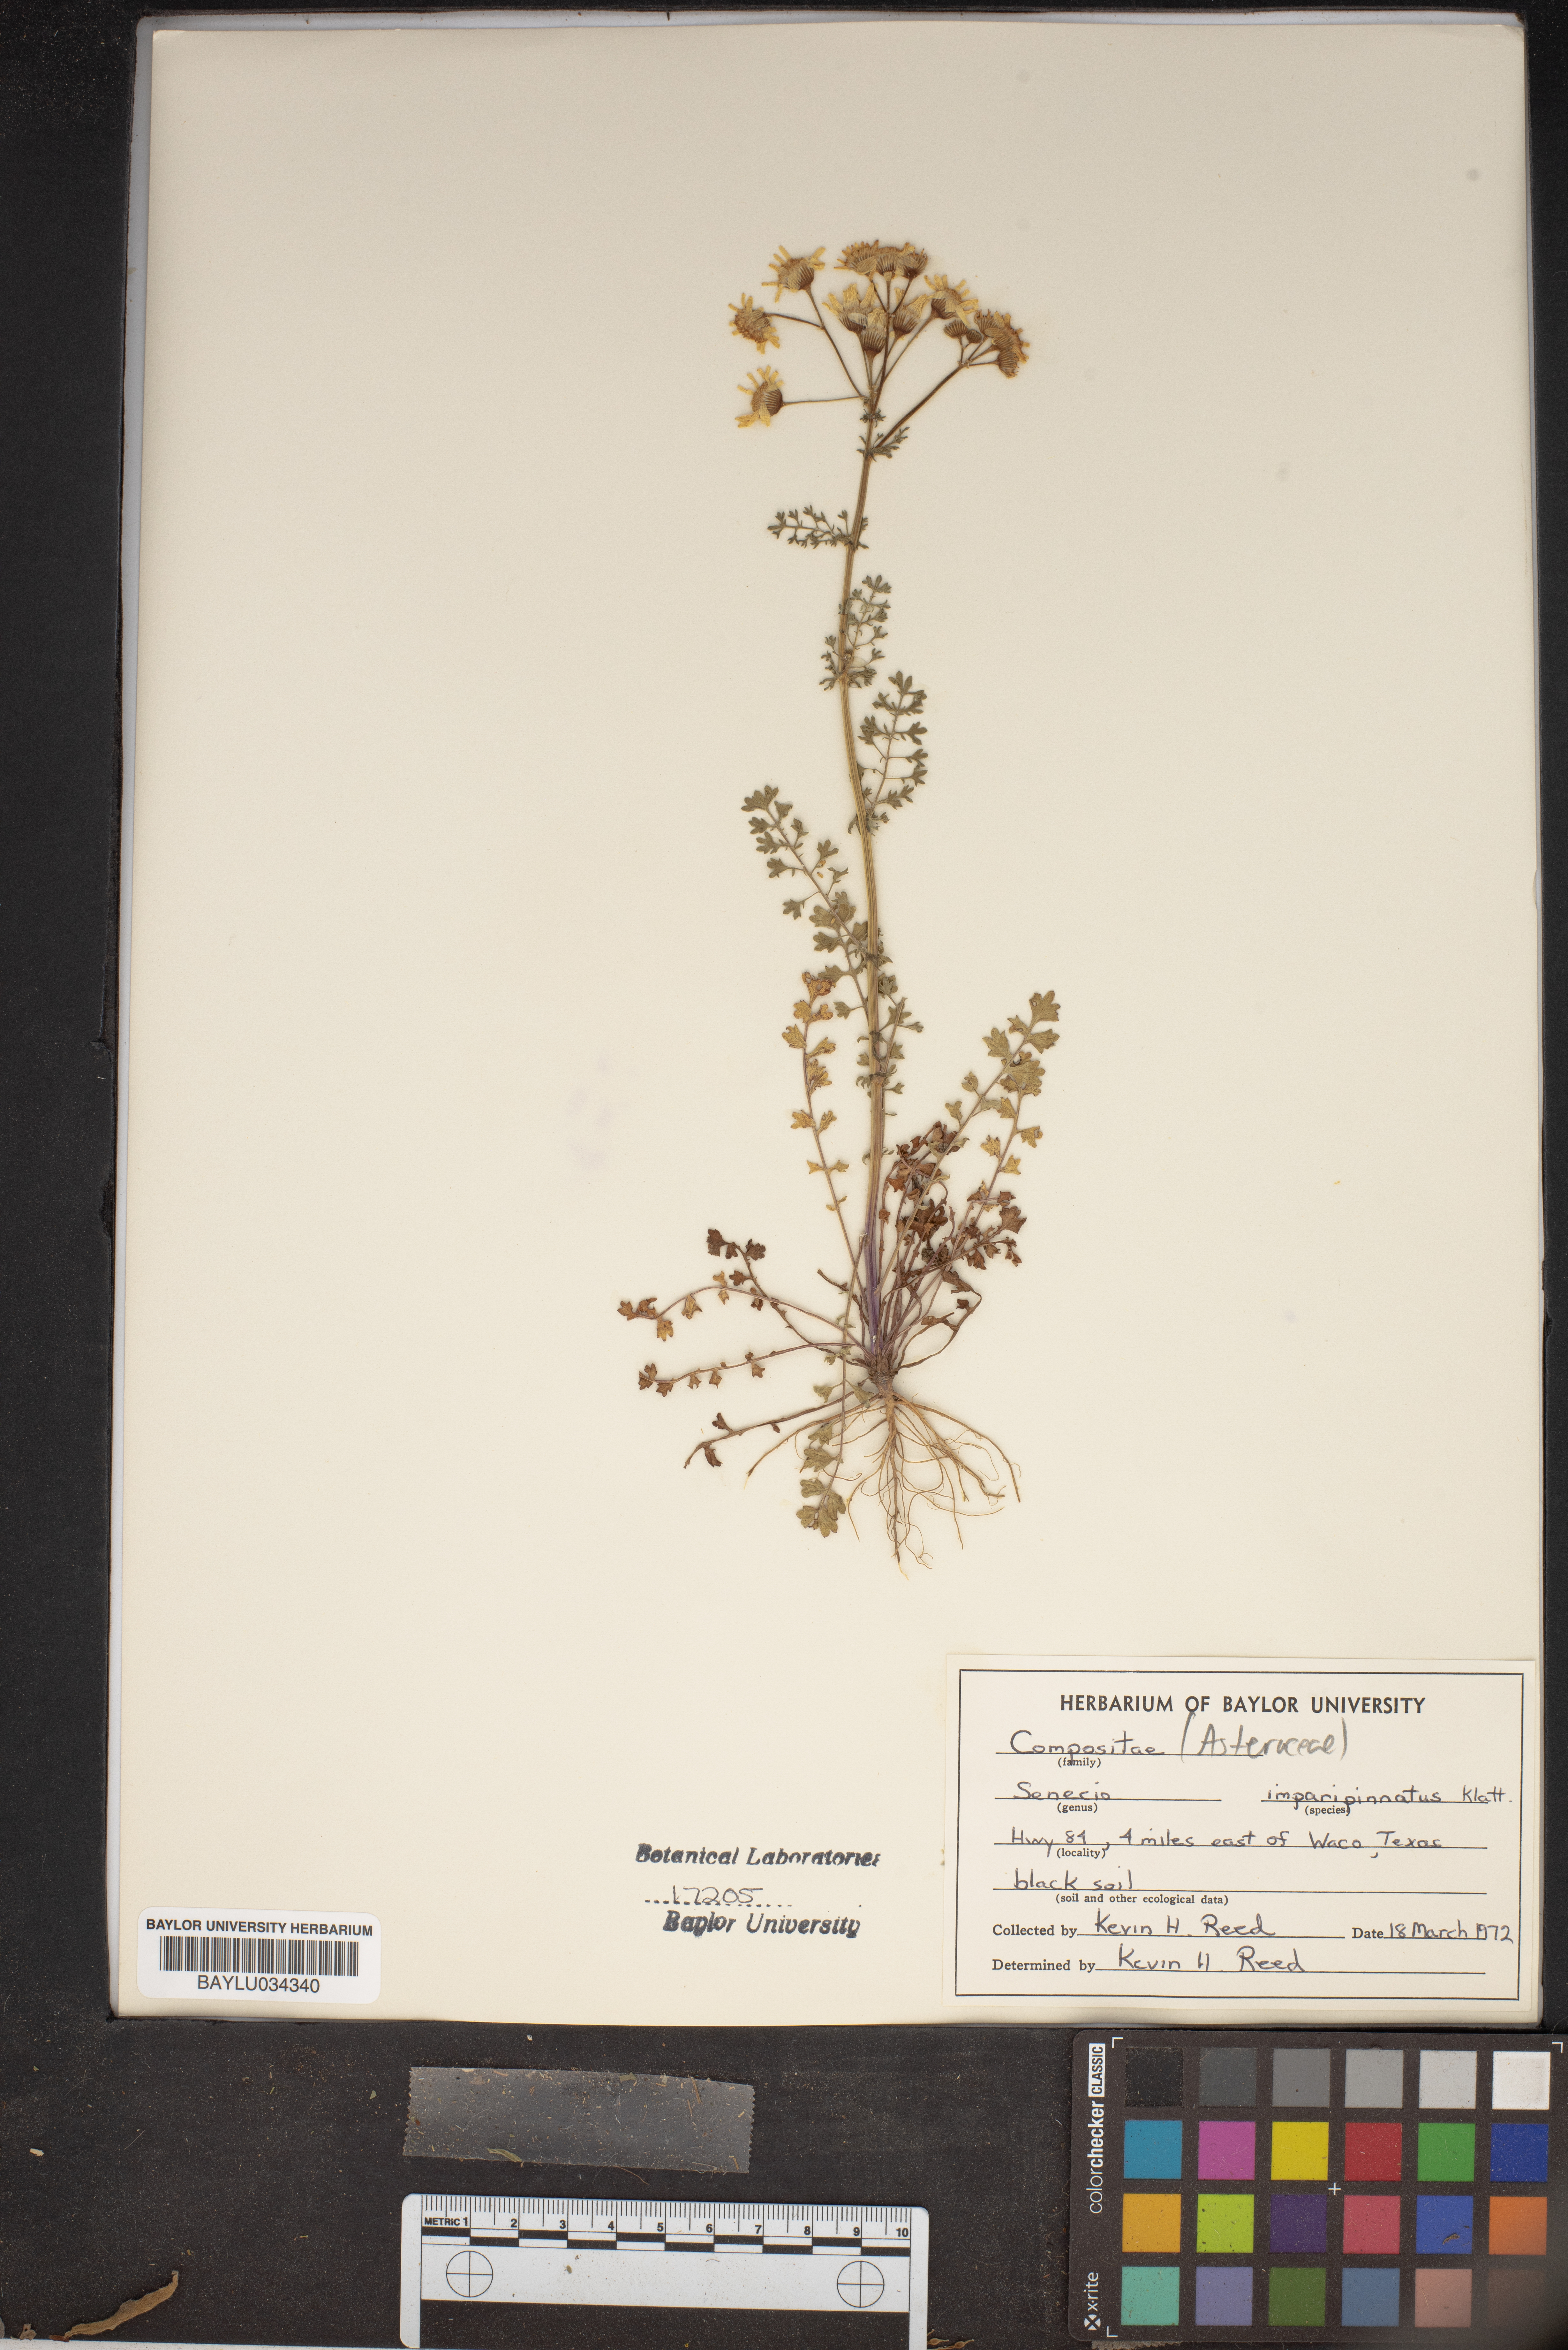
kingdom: Plantae
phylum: Tracheophyta
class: Magnoliopsida
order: Asterales
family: Asteraceae
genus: Packera
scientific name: Packera tampicana
